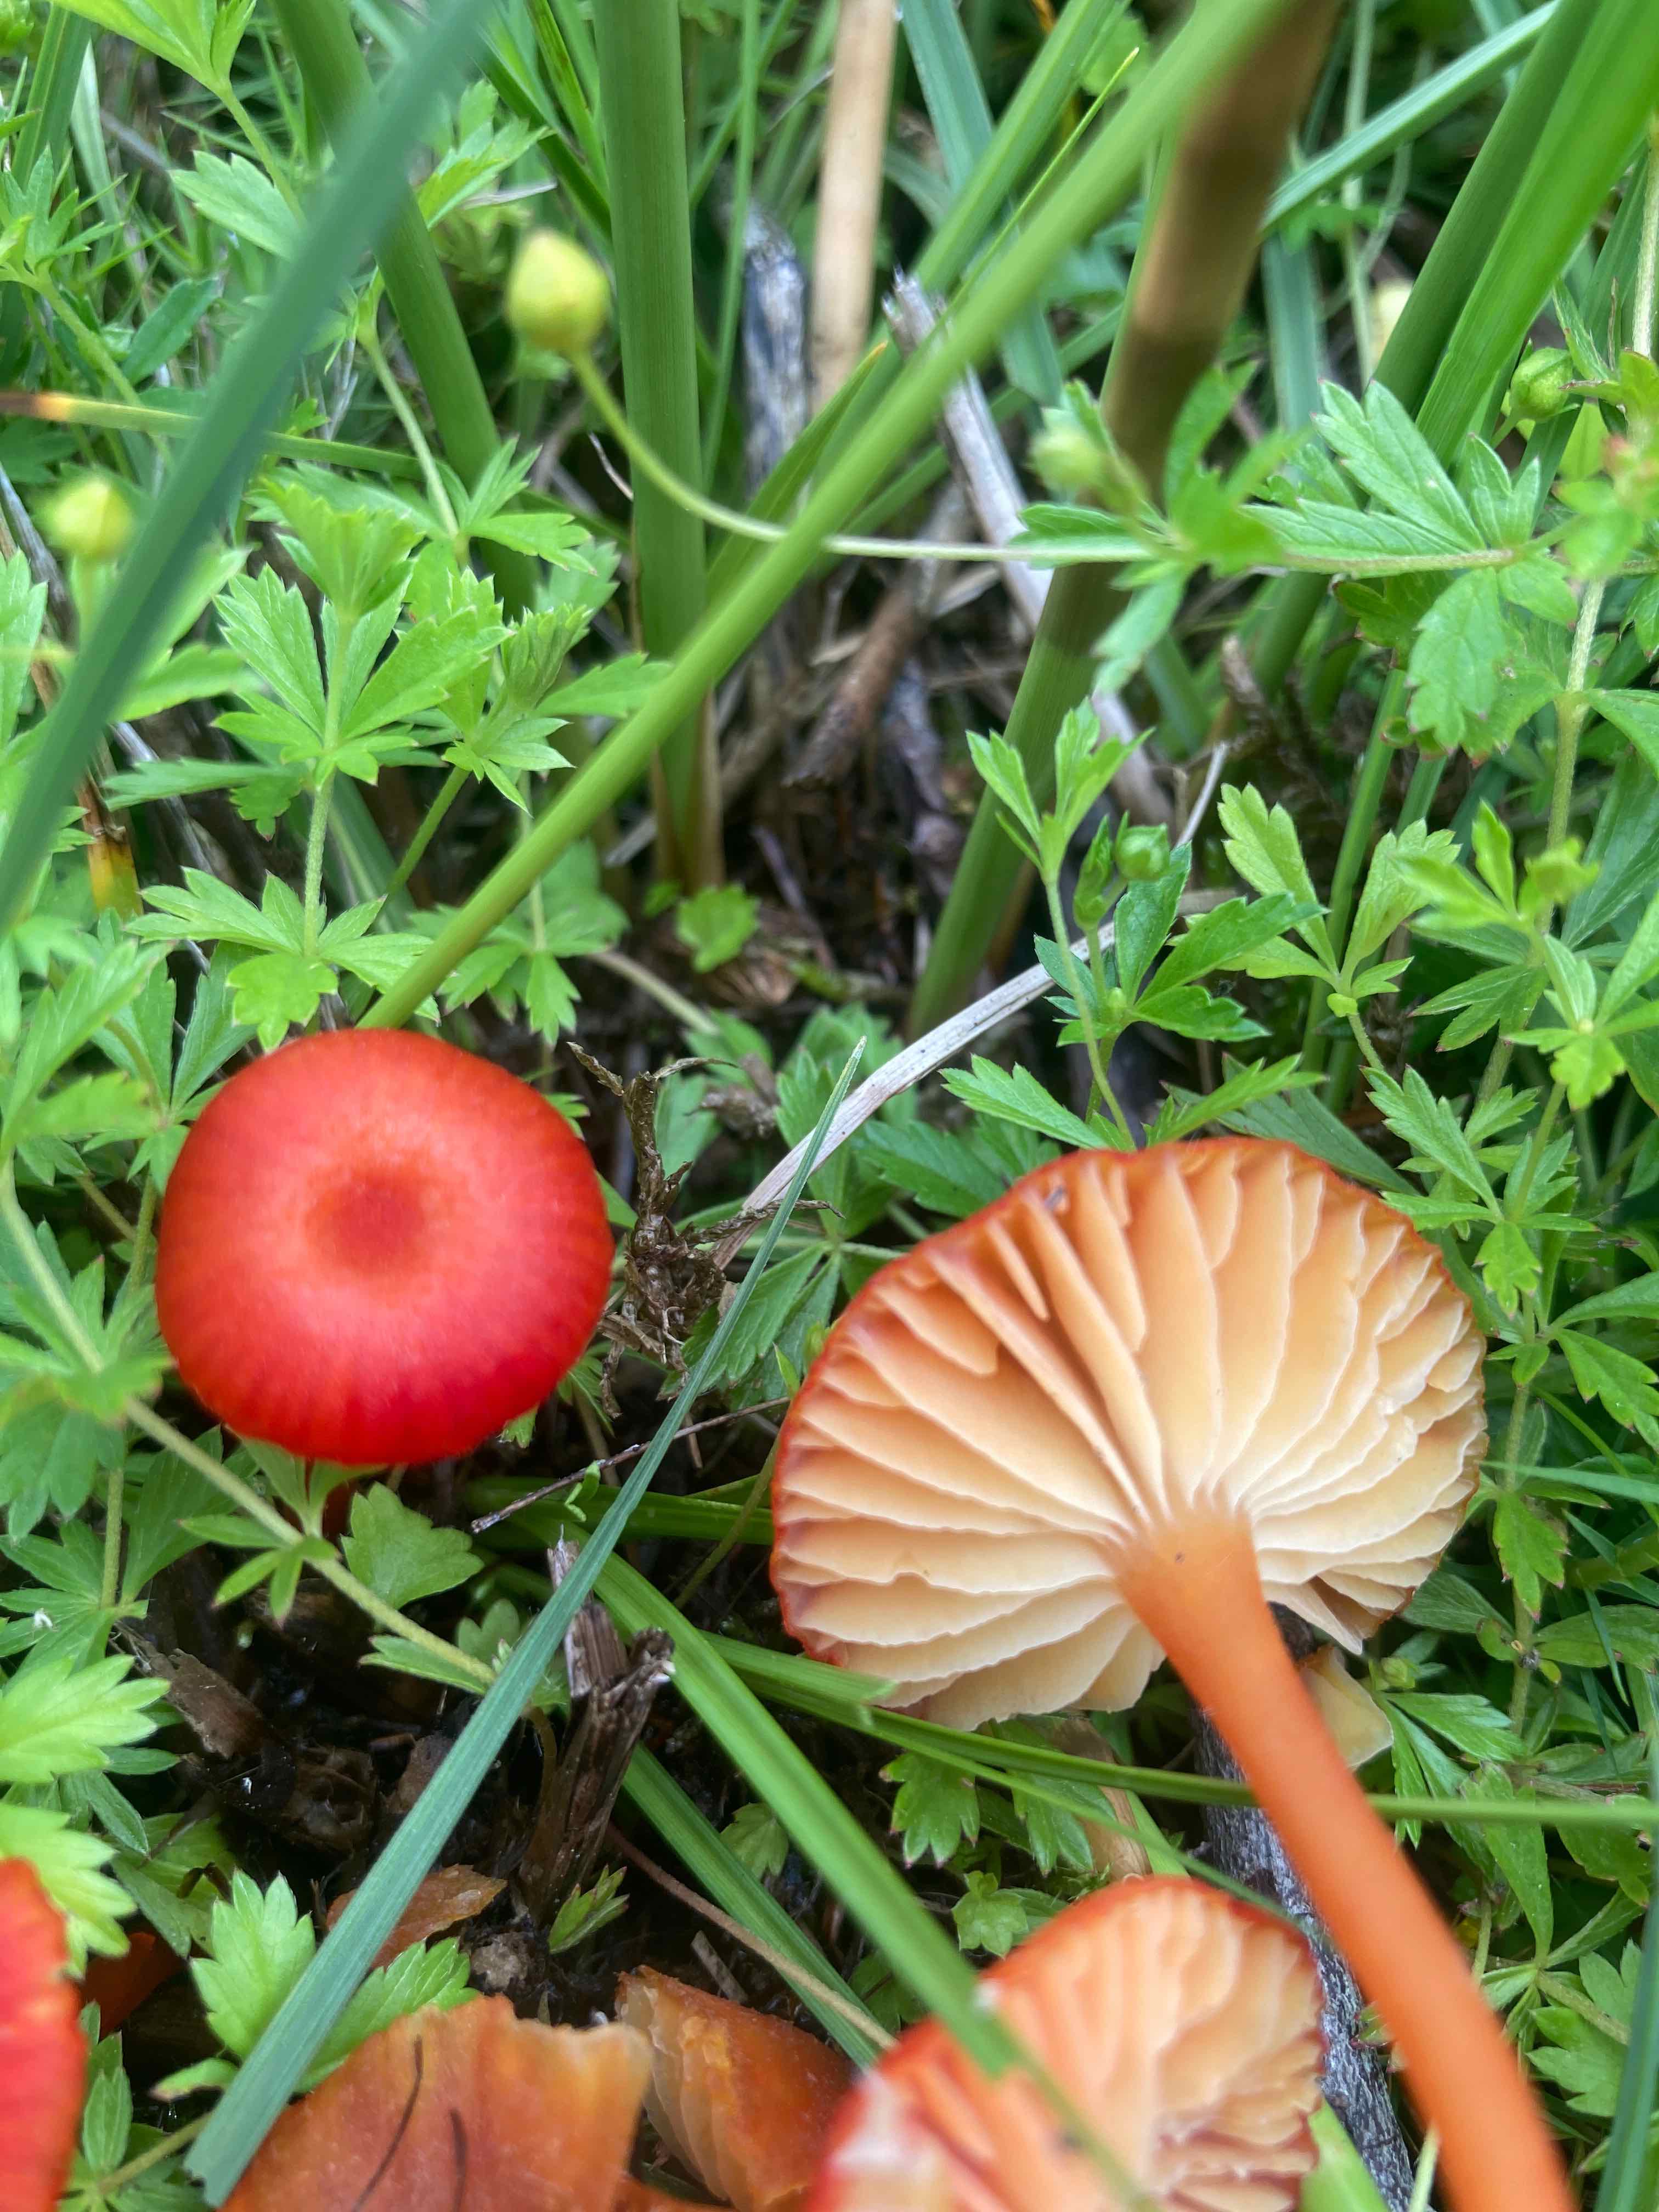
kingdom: Fungi
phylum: Basidiomycota
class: Agaricomycetes
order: Agaricales
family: Hygrophoraceae
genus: Hygrocybe
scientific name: Hygrocybe helobia
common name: hvidløgs-vokshat
